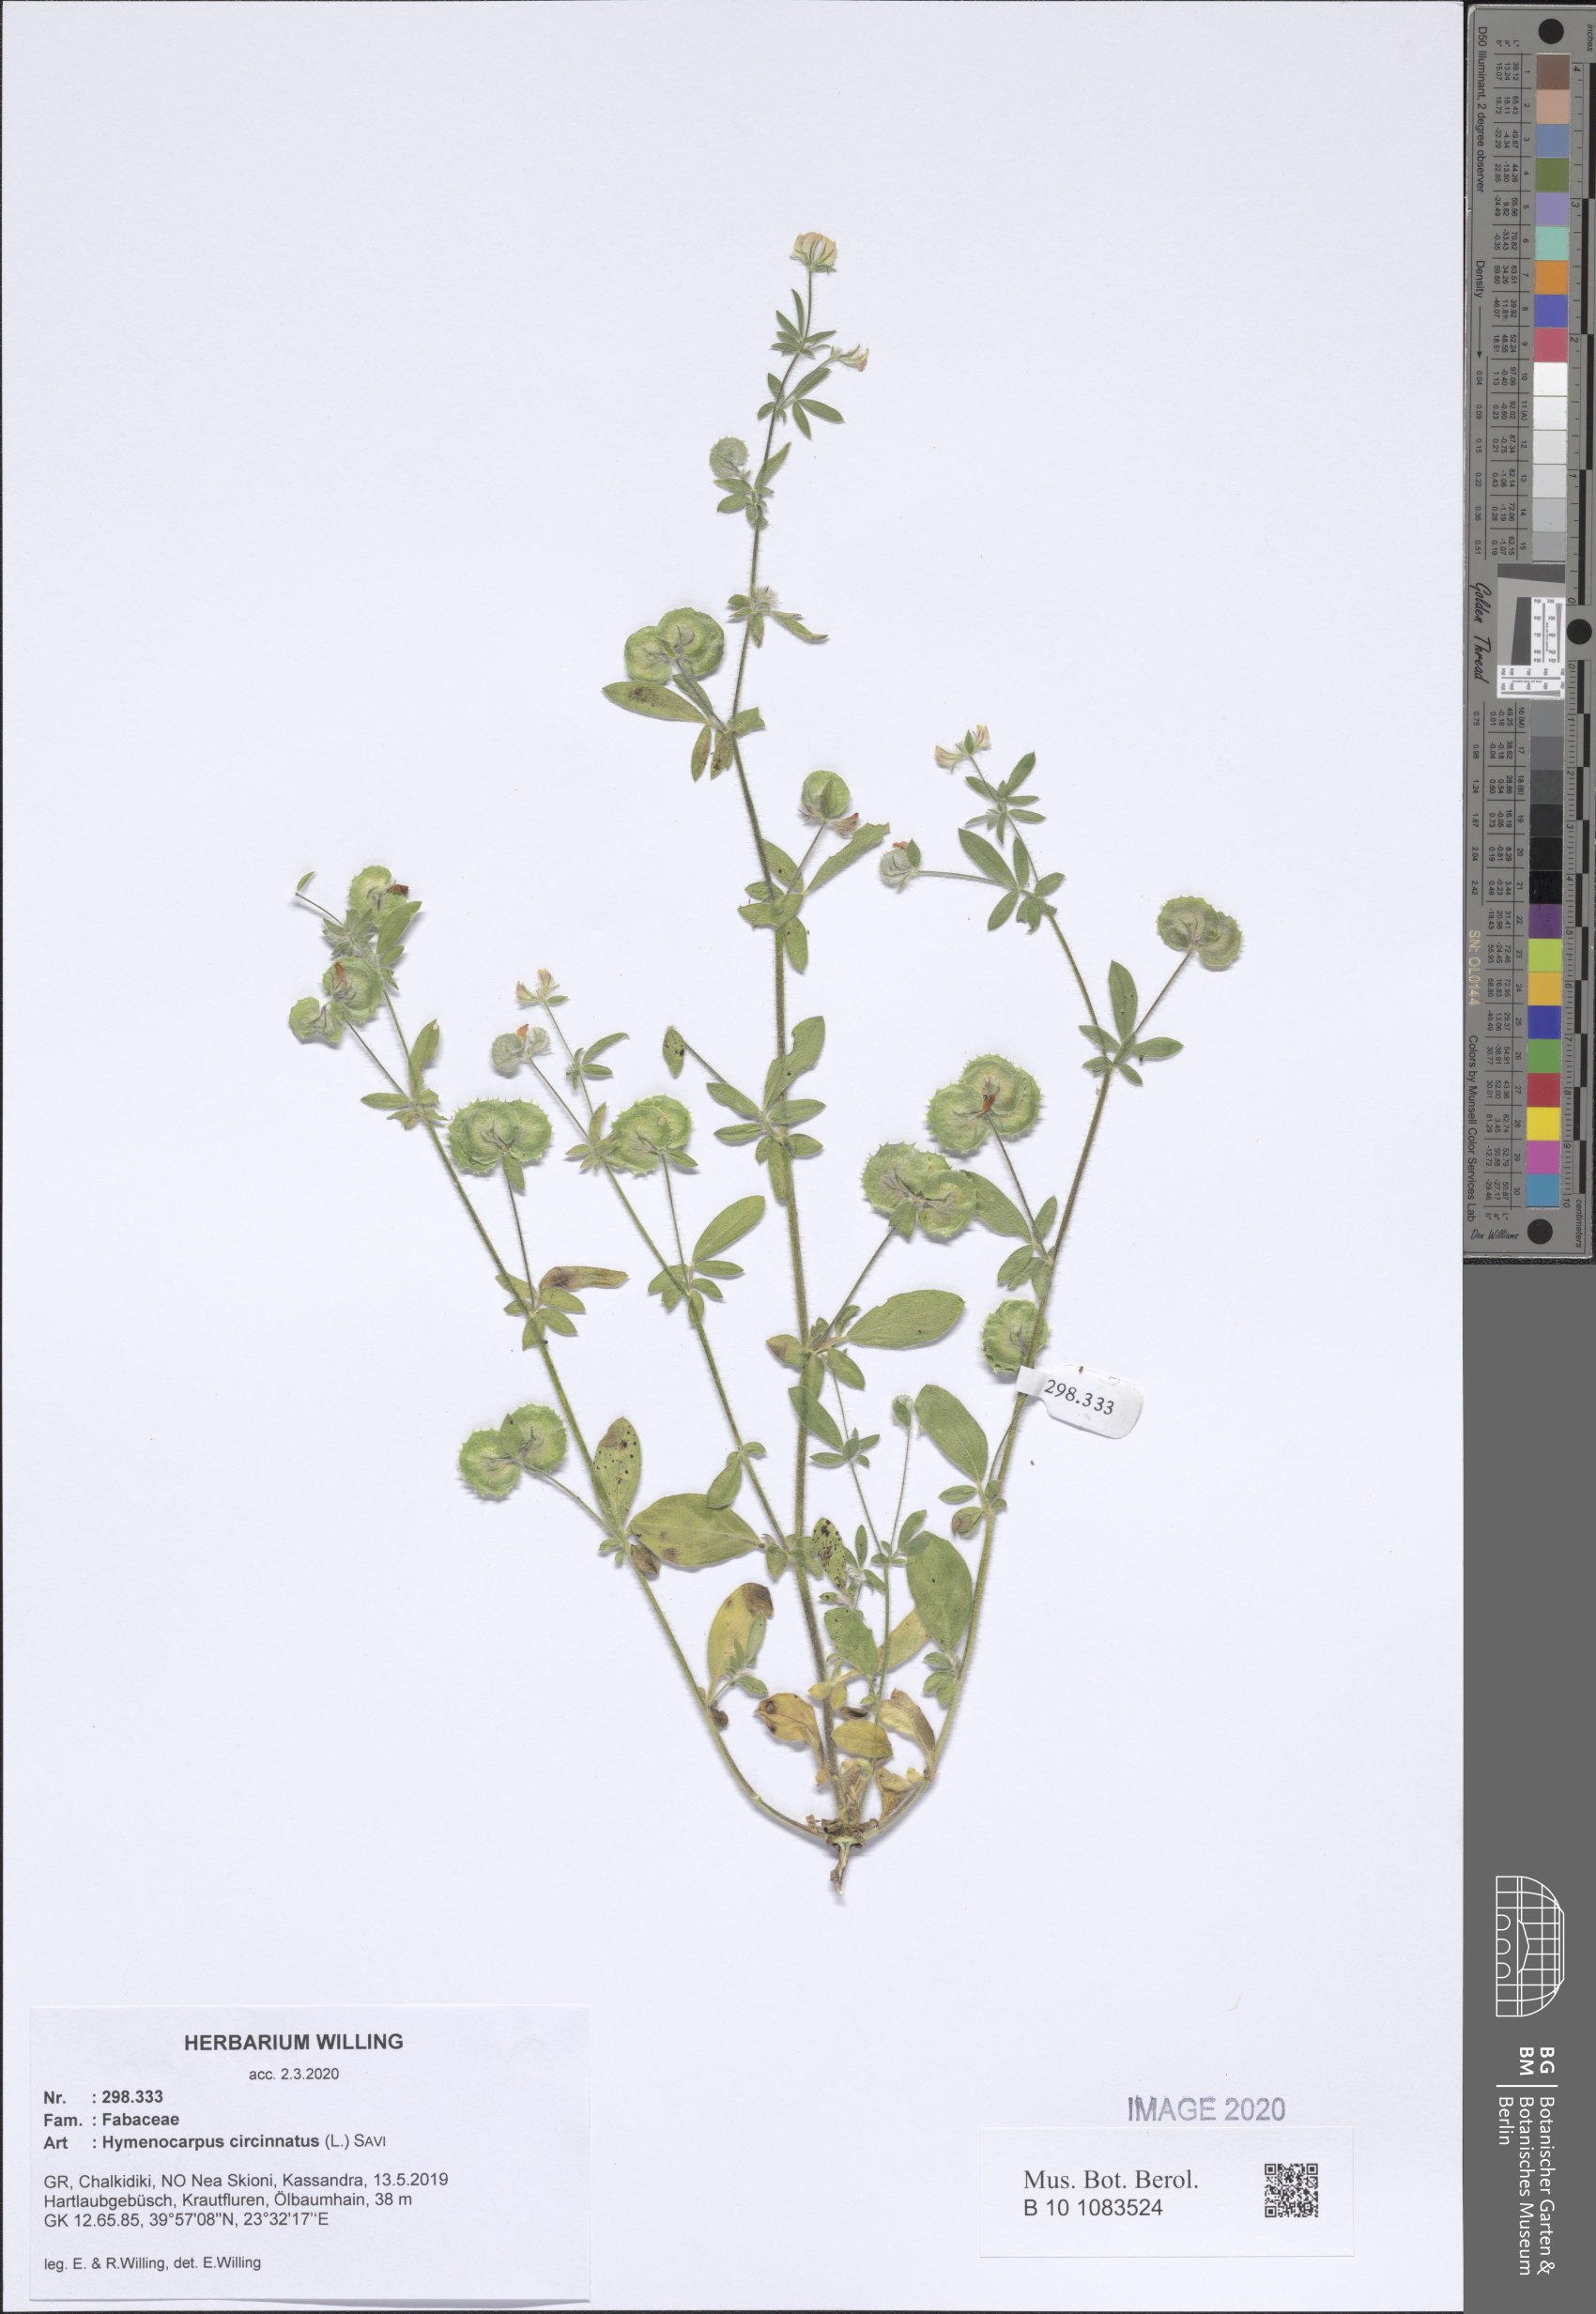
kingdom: Plantae
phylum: Tracheophyta
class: Magnoliopsida
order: Fabales
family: Fabaceae
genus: Anthyllis
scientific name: Anthyllis circinnata
